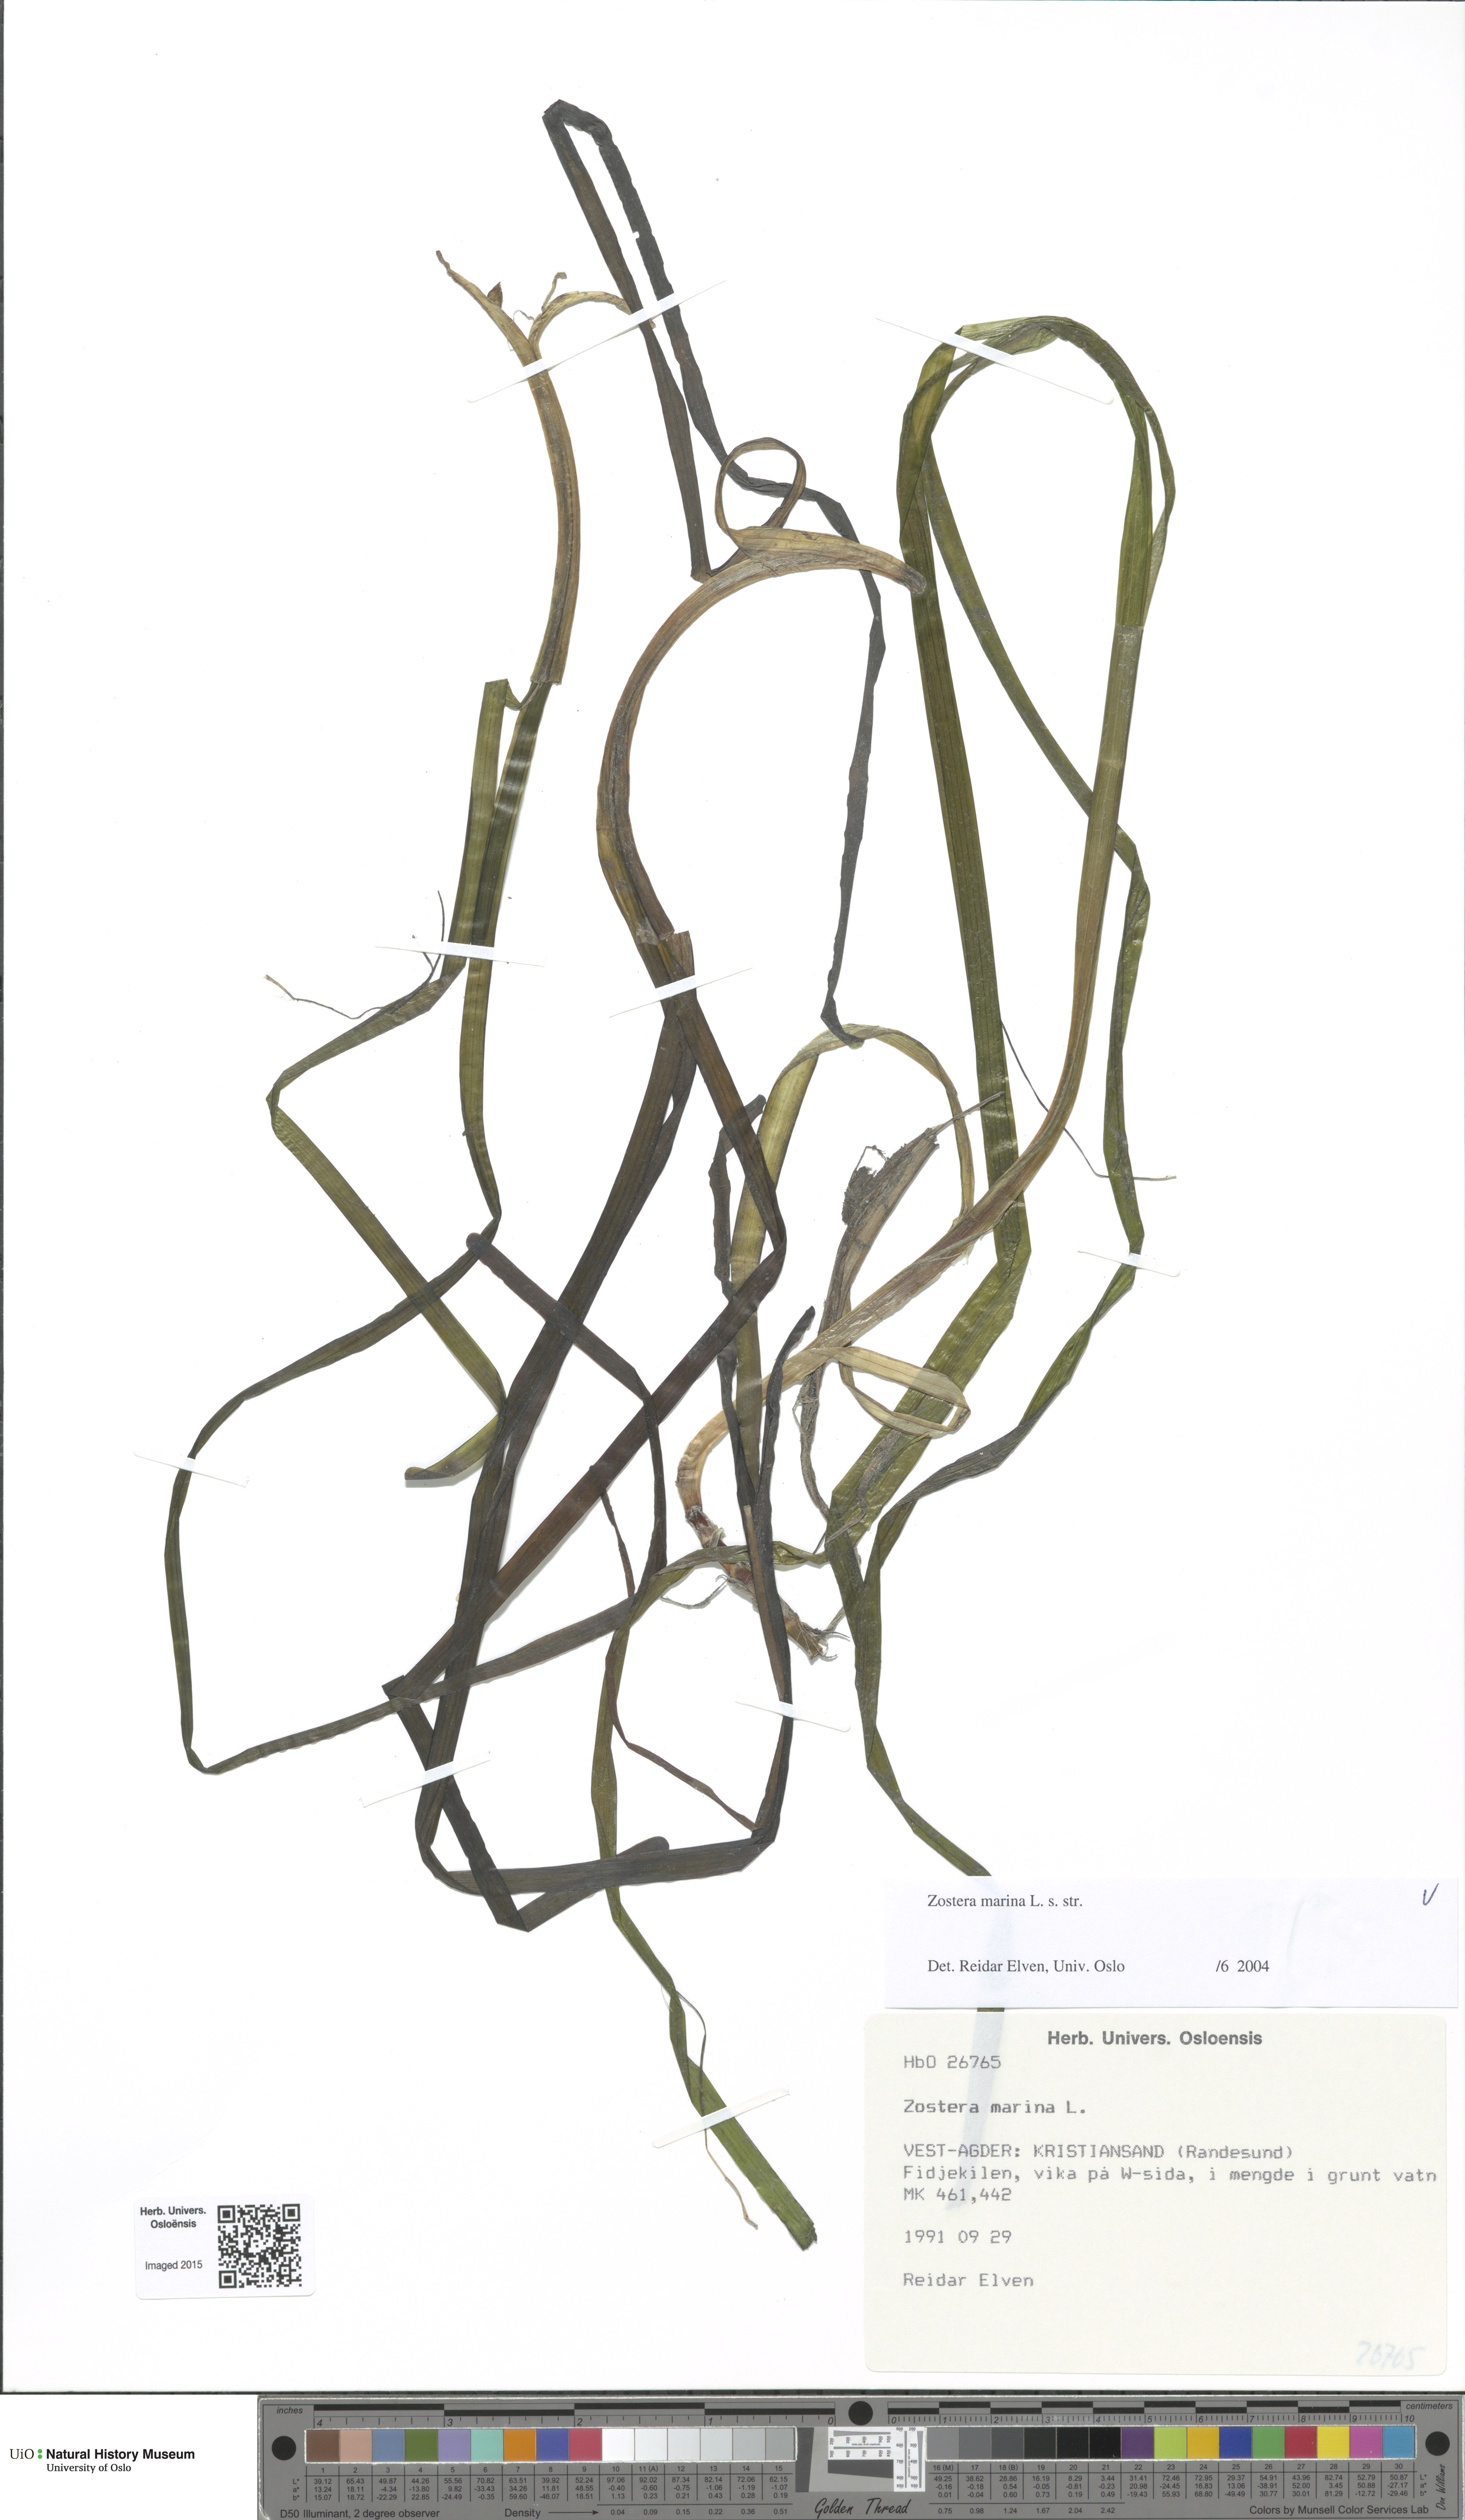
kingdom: Plantae
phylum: Tracheophyta
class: Liliopsida
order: Alismatales
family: Zosteraceae
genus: Zostera
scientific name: Zostera marina
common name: Eelgrass
